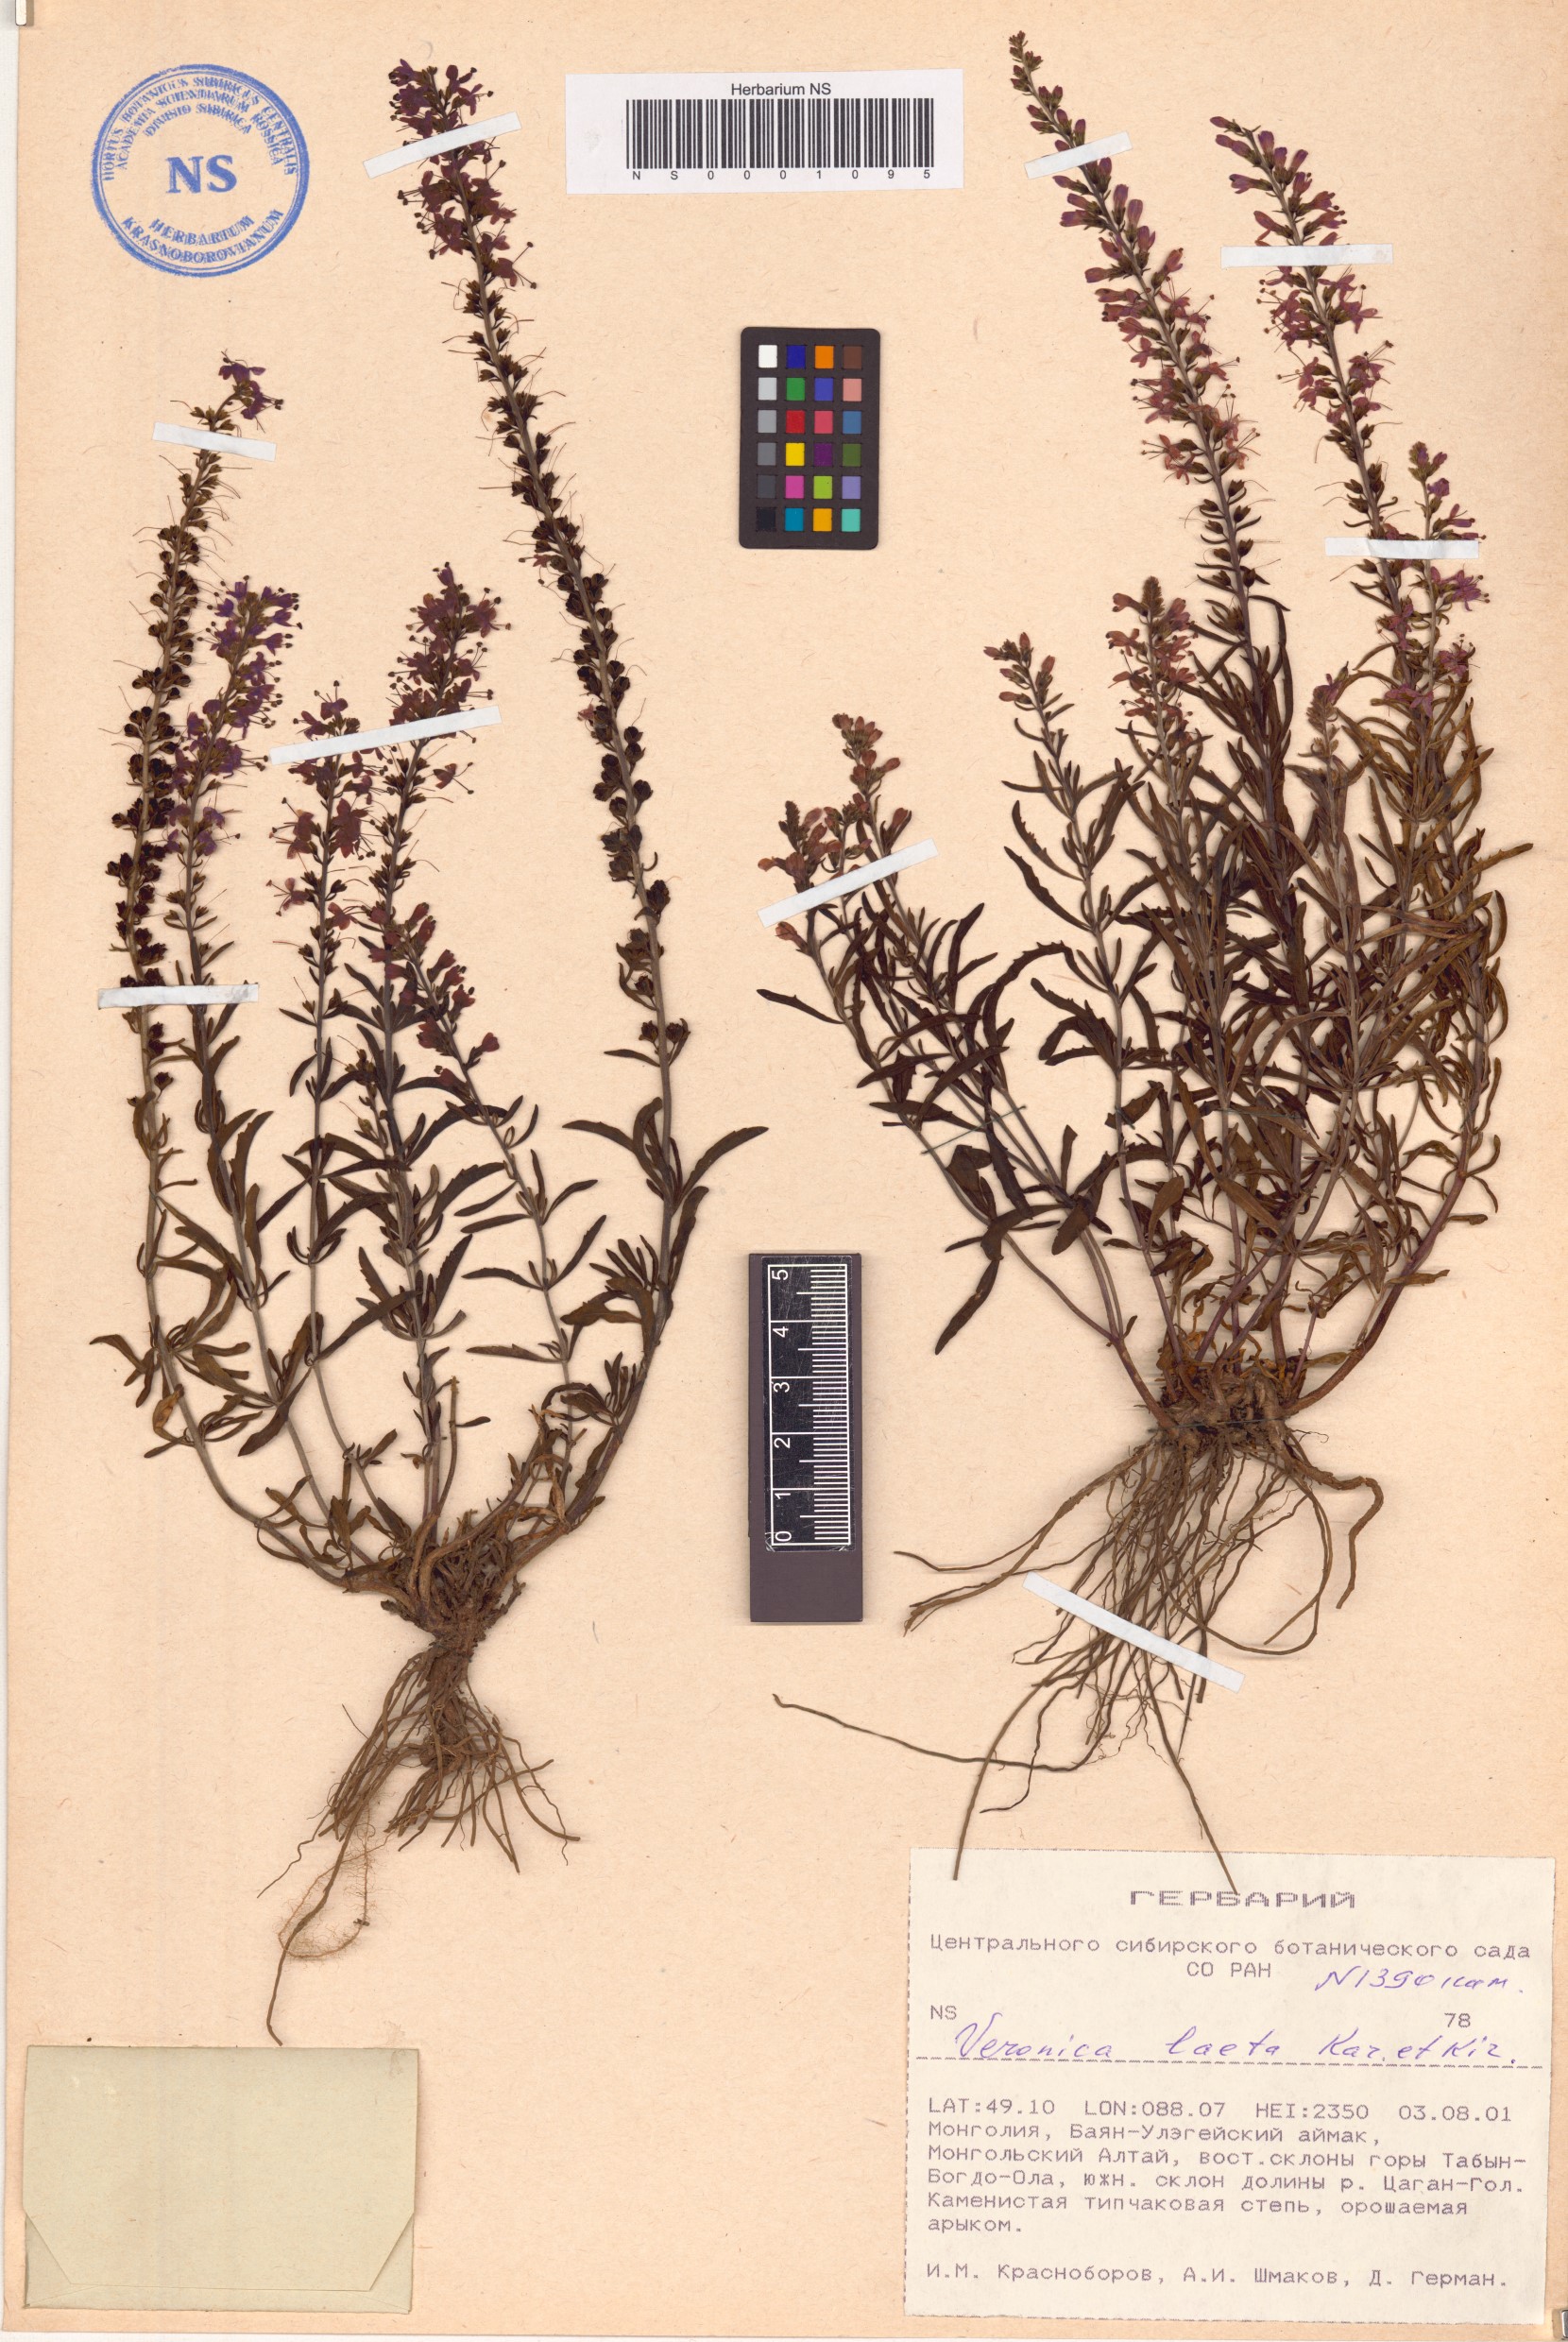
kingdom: Plantae
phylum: Tracheophyta
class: Magnoliopsida
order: Lamiales
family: Plantaginaceae
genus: Veronica
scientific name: Veronica laeta
